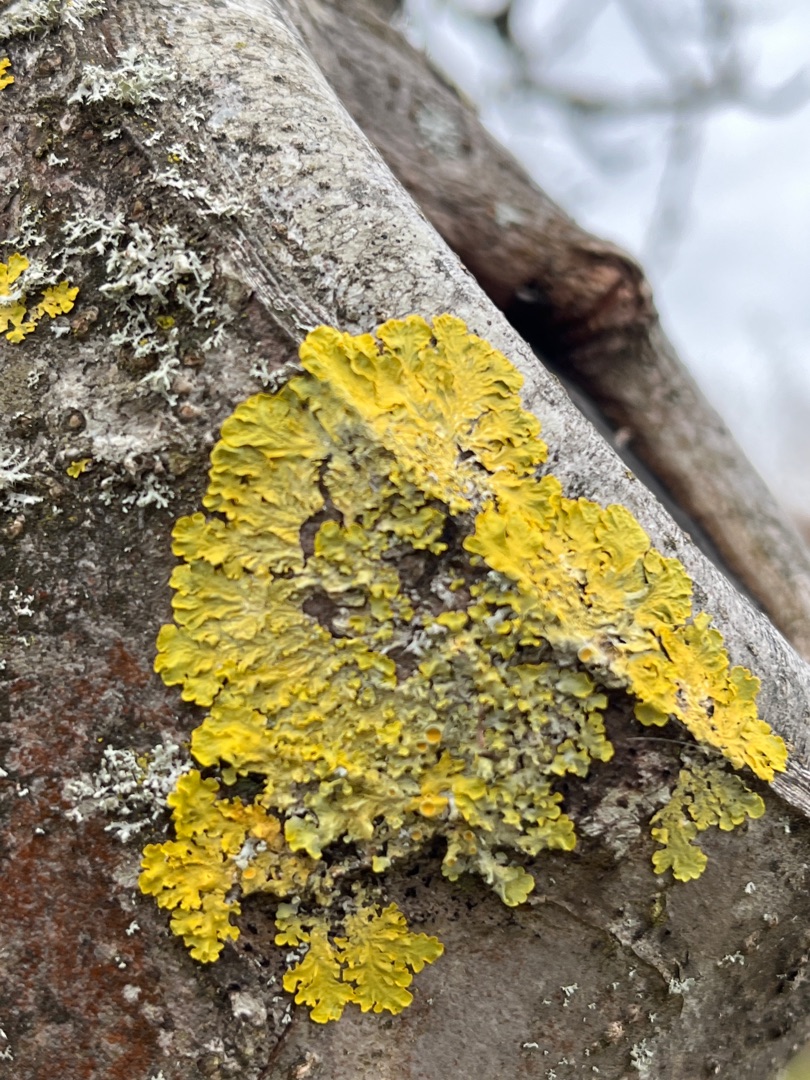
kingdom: Fungi
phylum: Ascomycota
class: Lecanoromycetes
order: Teloschistales
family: Teloschistaceae
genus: Xanthoria
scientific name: Xanthoria parietina
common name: Almindelig væggelav
